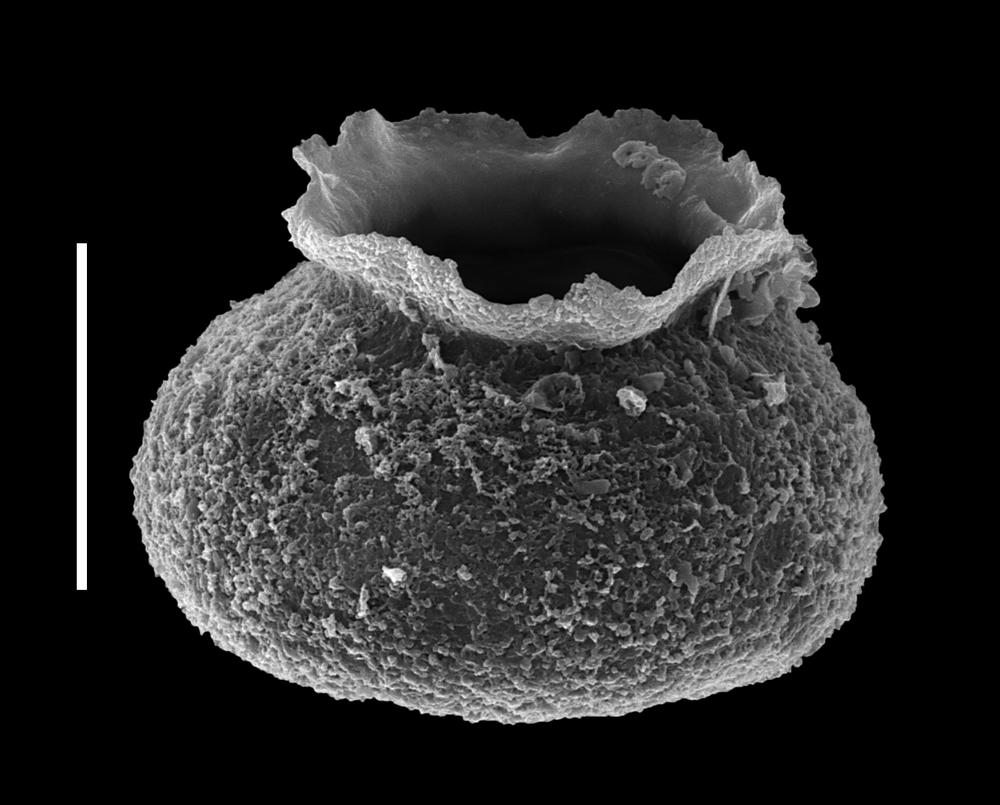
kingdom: Animalia
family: Desmochitinidae
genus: Calpichitina
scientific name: Calpichitina
